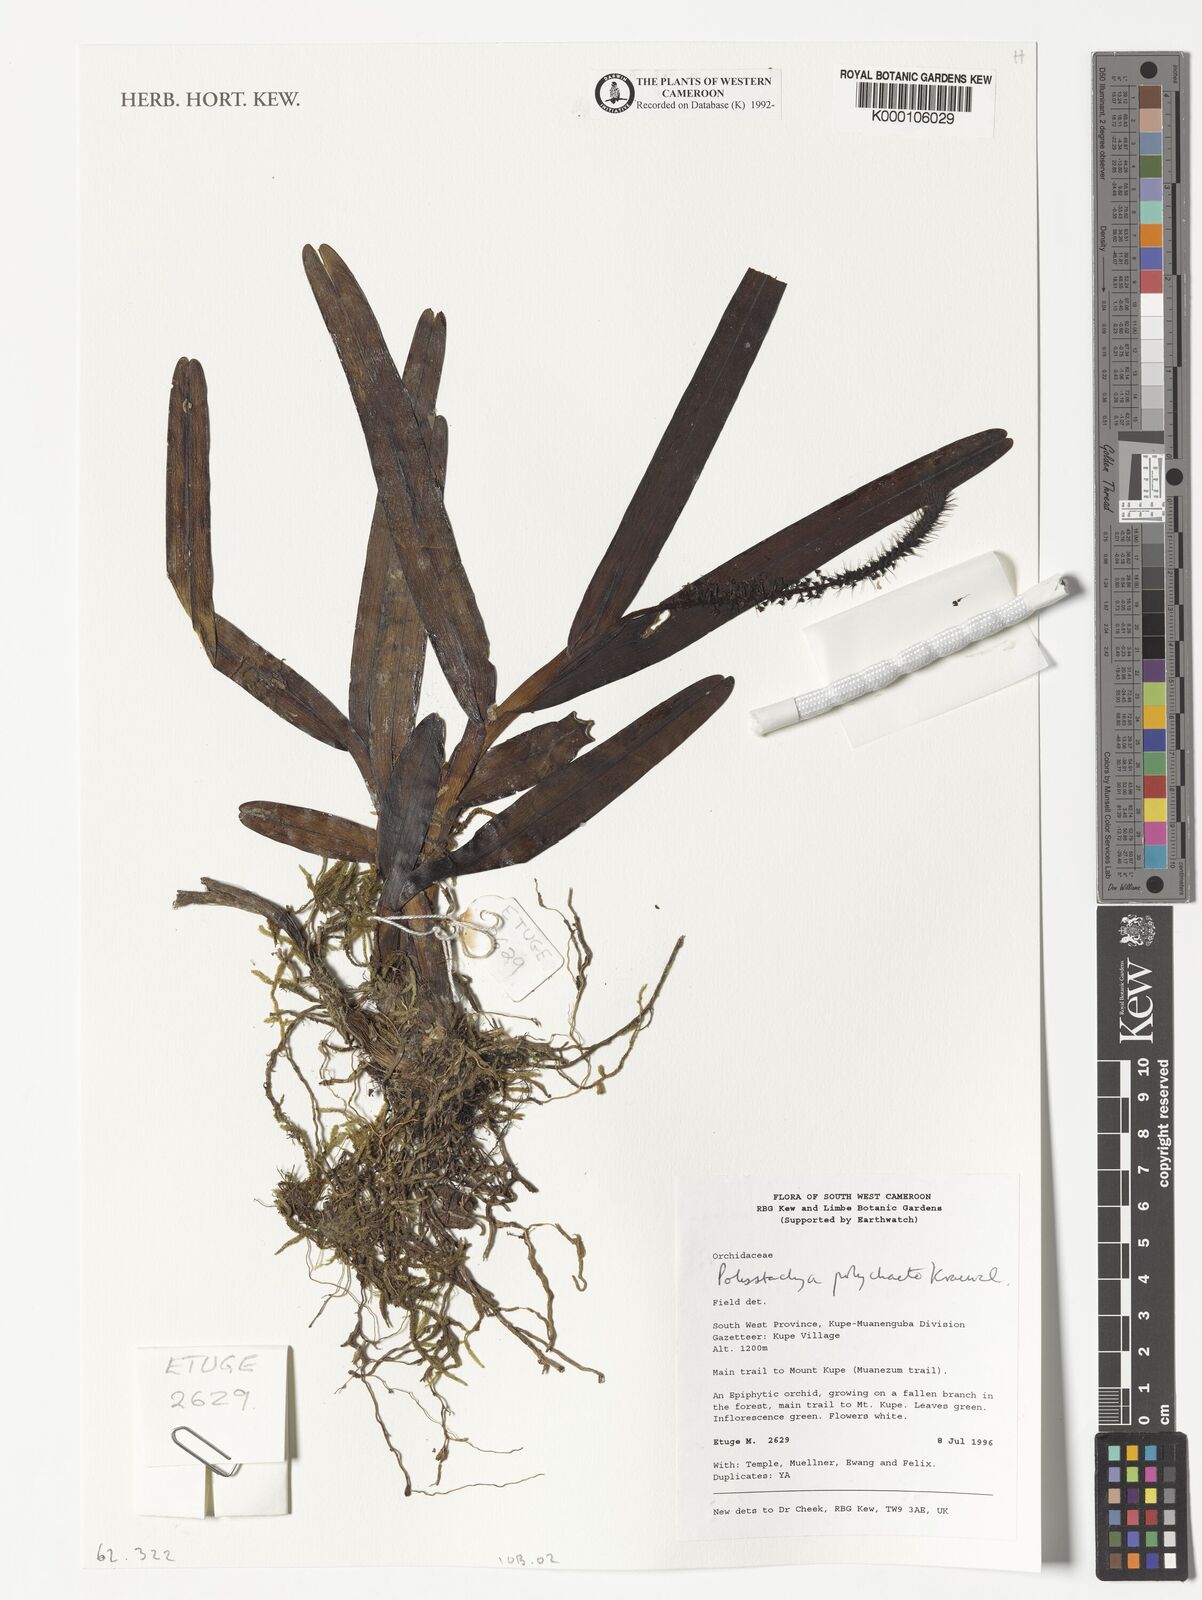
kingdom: Plantae
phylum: Tracheophyta
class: Liliopsida
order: Asparagales
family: Orchidaceae
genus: Polystachya
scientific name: Polystachya polychaete
